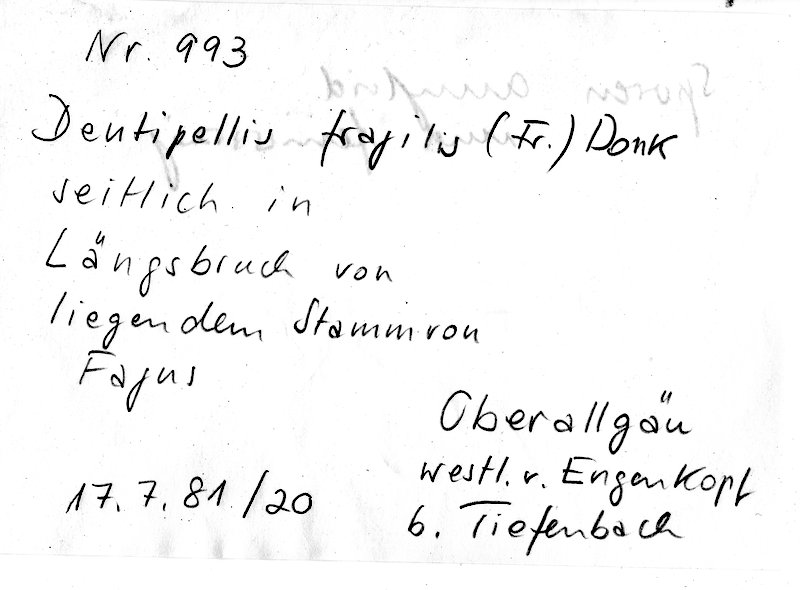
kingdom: Plantae
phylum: Tracheophyta
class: Magnoliopsida
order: Fagales
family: Fagaceae
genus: Fagus
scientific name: Fagus sylvatica
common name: Beech
